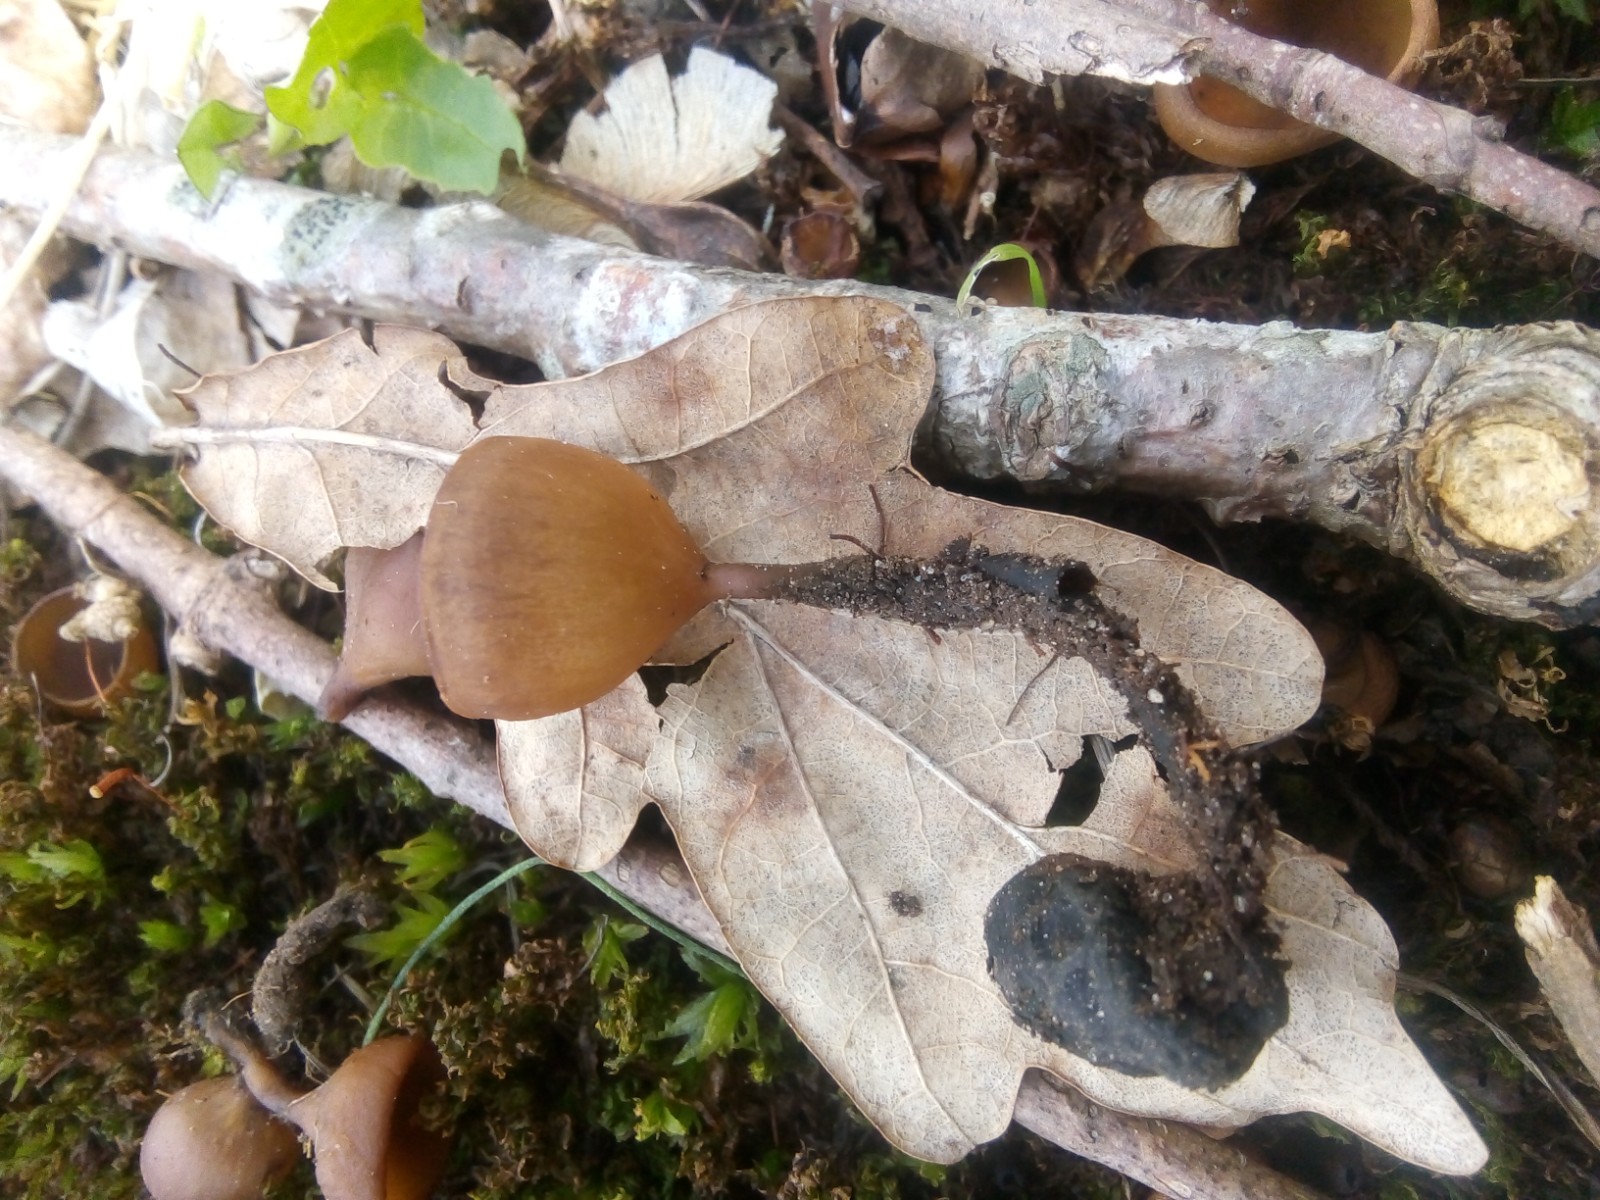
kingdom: Fungi
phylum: Ascomycota
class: Leotiomycetes
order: Helotiales
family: Sclerotiniaceae
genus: Dumontinia
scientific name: Dumontinia tuberosa
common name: anemone-knoldskive
